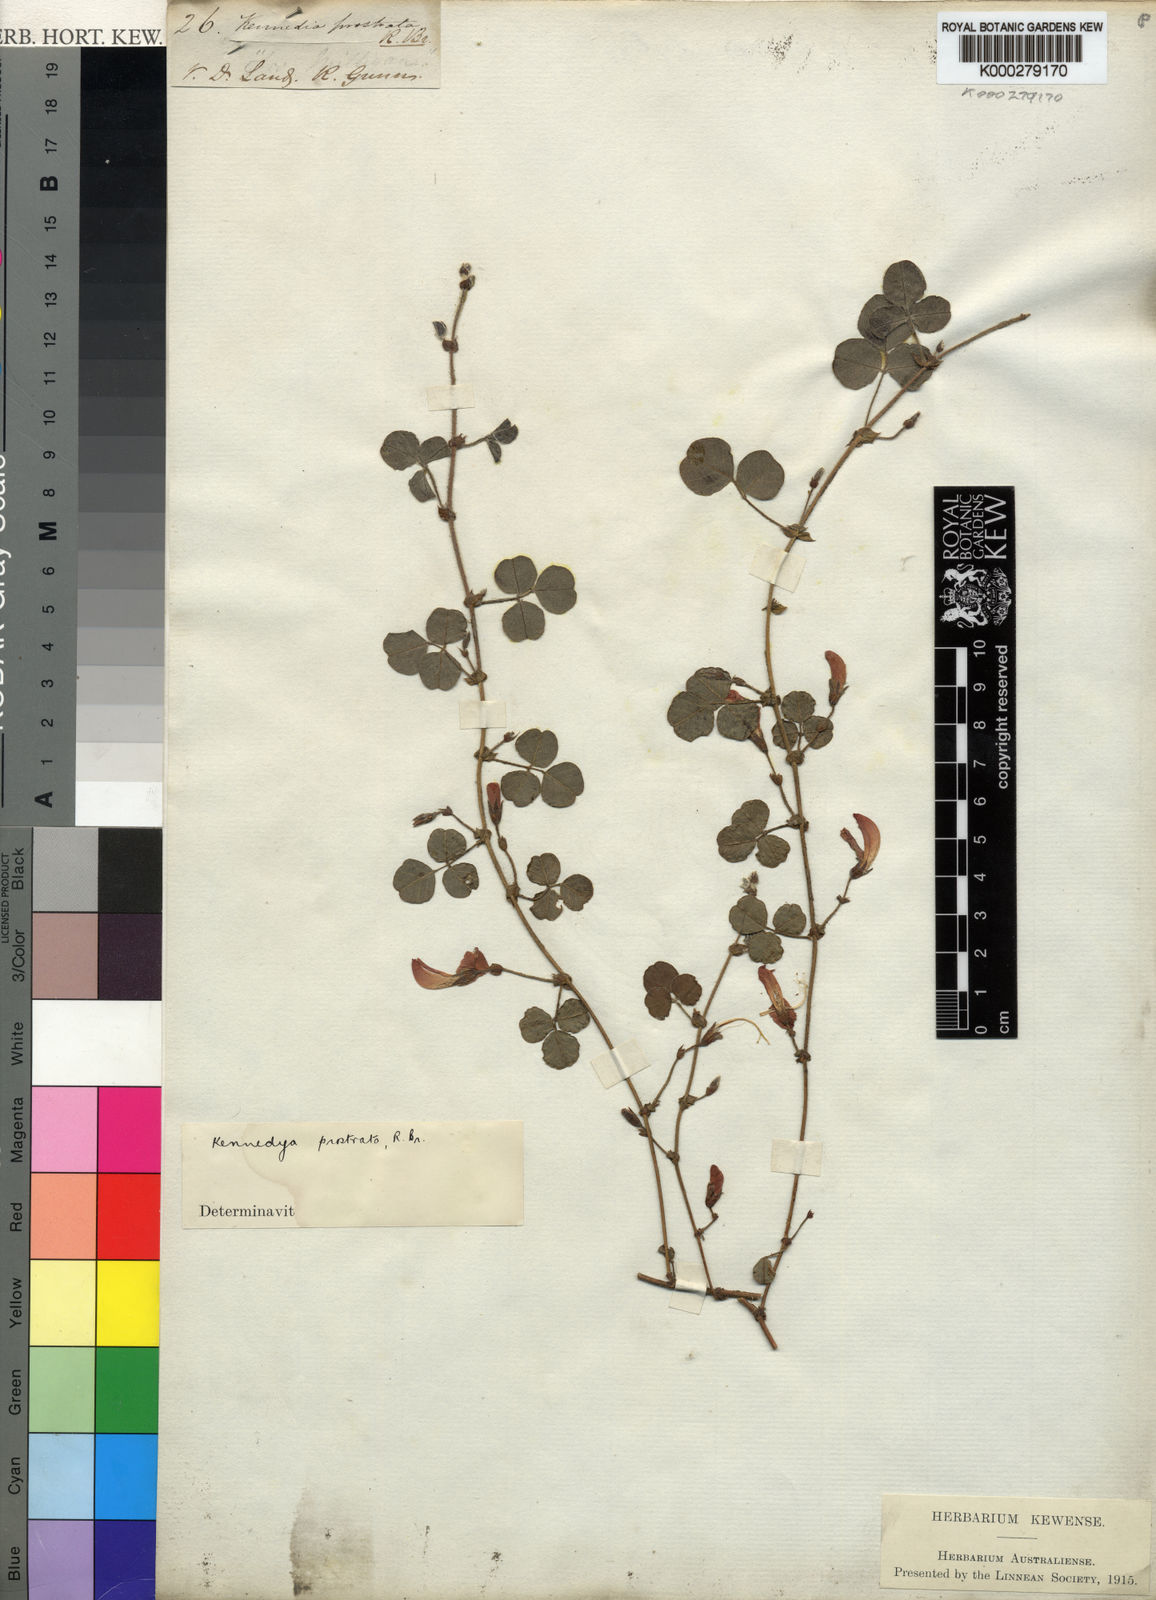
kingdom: Plantae
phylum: Tracheophyta
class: Magnoliopsida
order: Fabales
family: Fabaceae
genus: Kennedia
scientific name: Kennedia prostrata
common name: Running-postman
